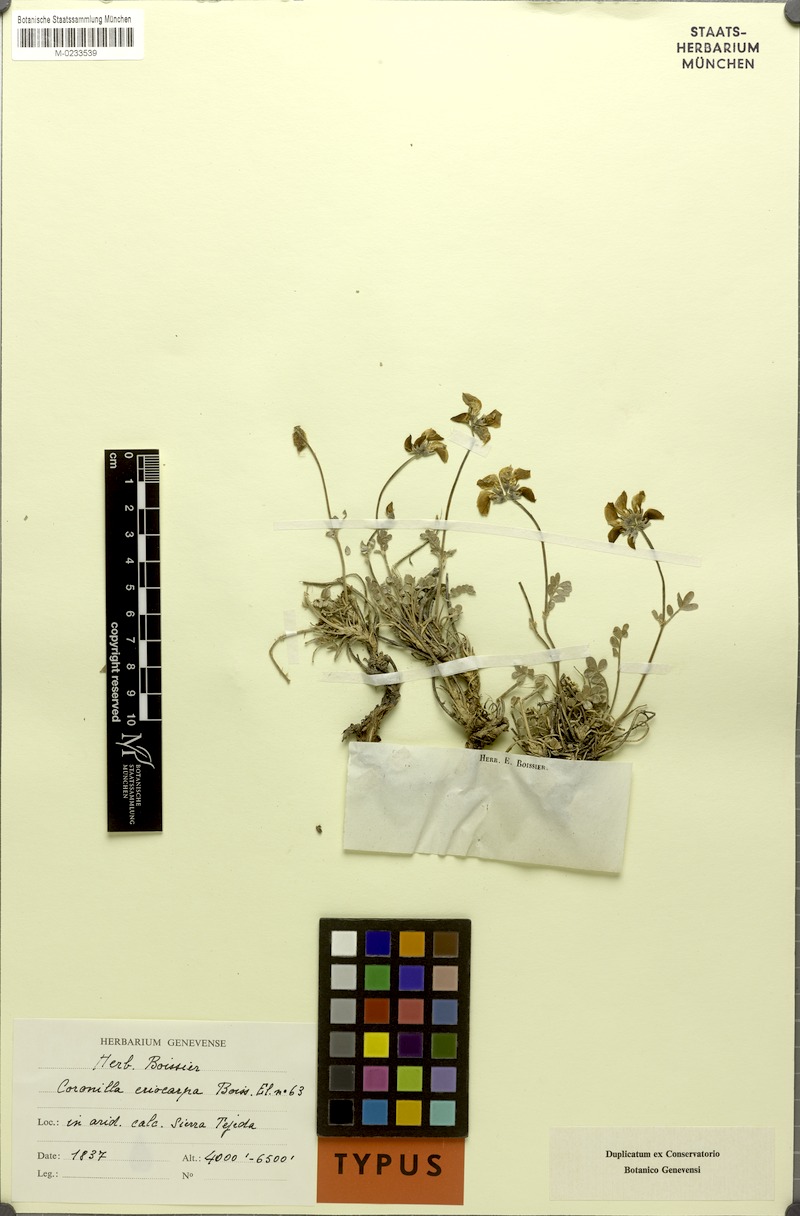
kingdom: Plantae
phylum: Tracheophyta
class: Magnoliopsida
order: Fabales
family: Fabaceae
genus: Hippocrepis
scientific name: Hippocrepis eriocarpa
